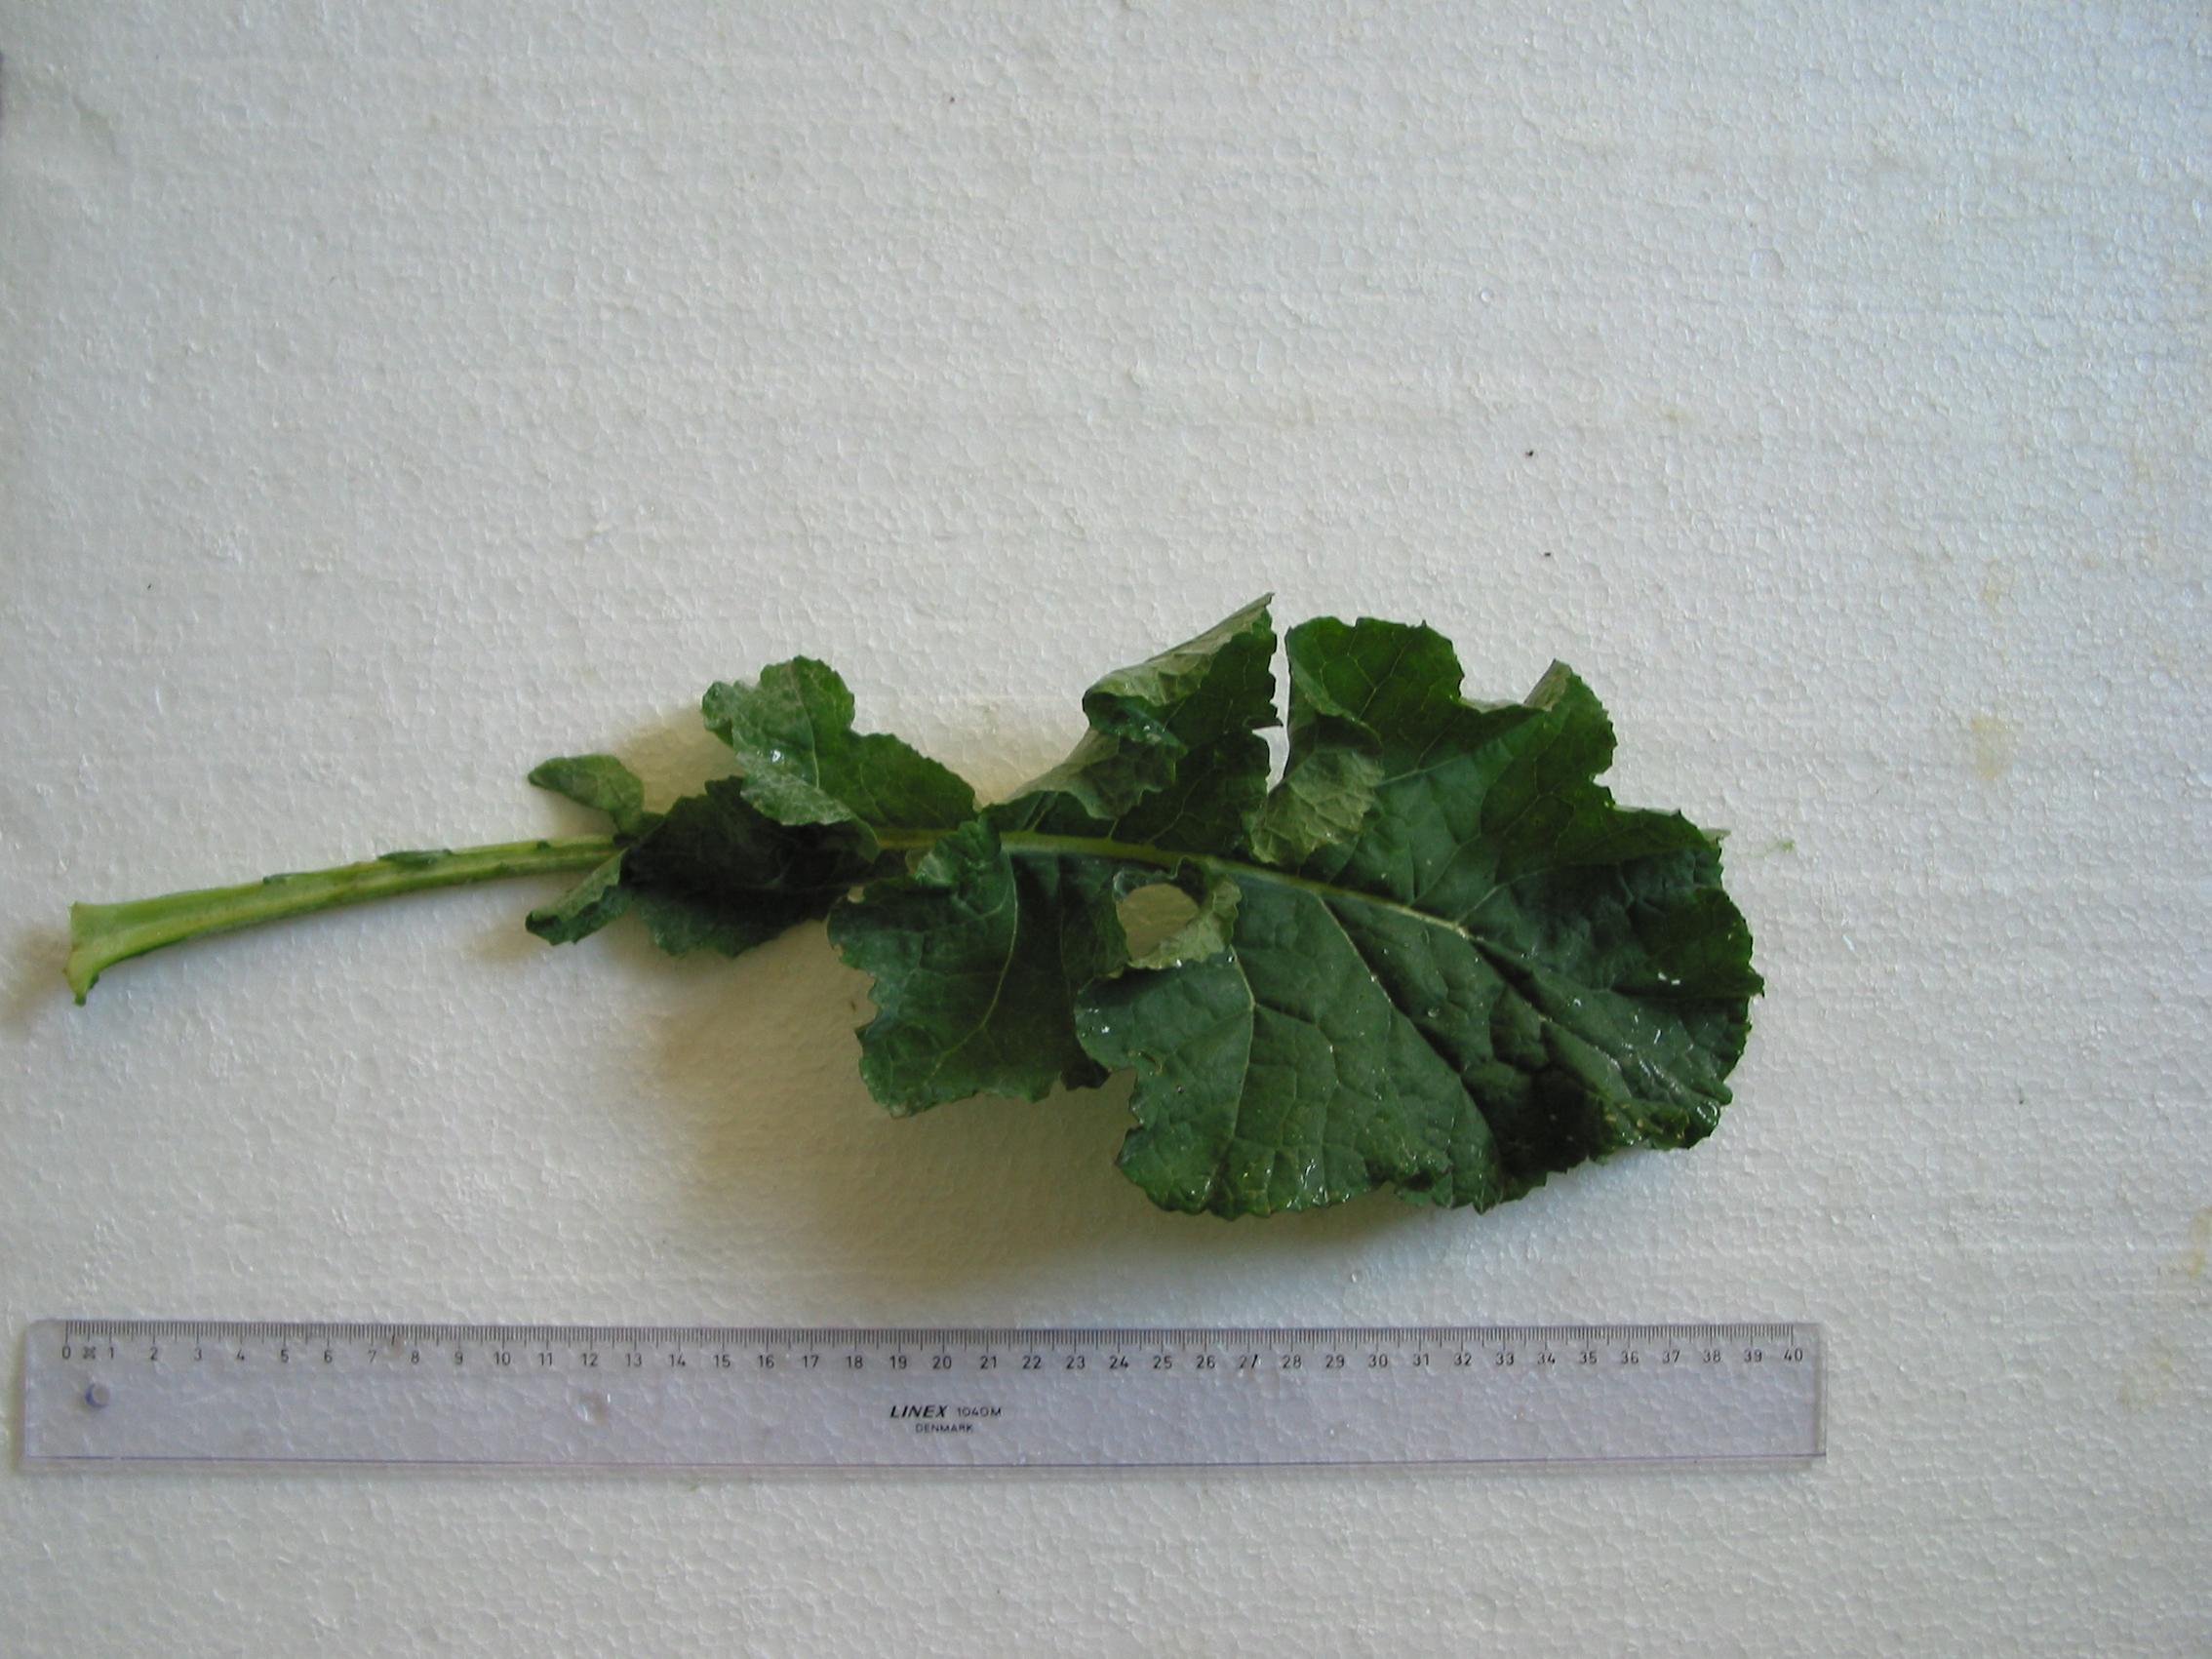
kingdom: Plantae
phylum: Tracheophyta
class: Magnoliopsida
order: Brassicales
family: Brassicaceae
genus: Brassica
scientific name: Brassica napus
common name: Rape
